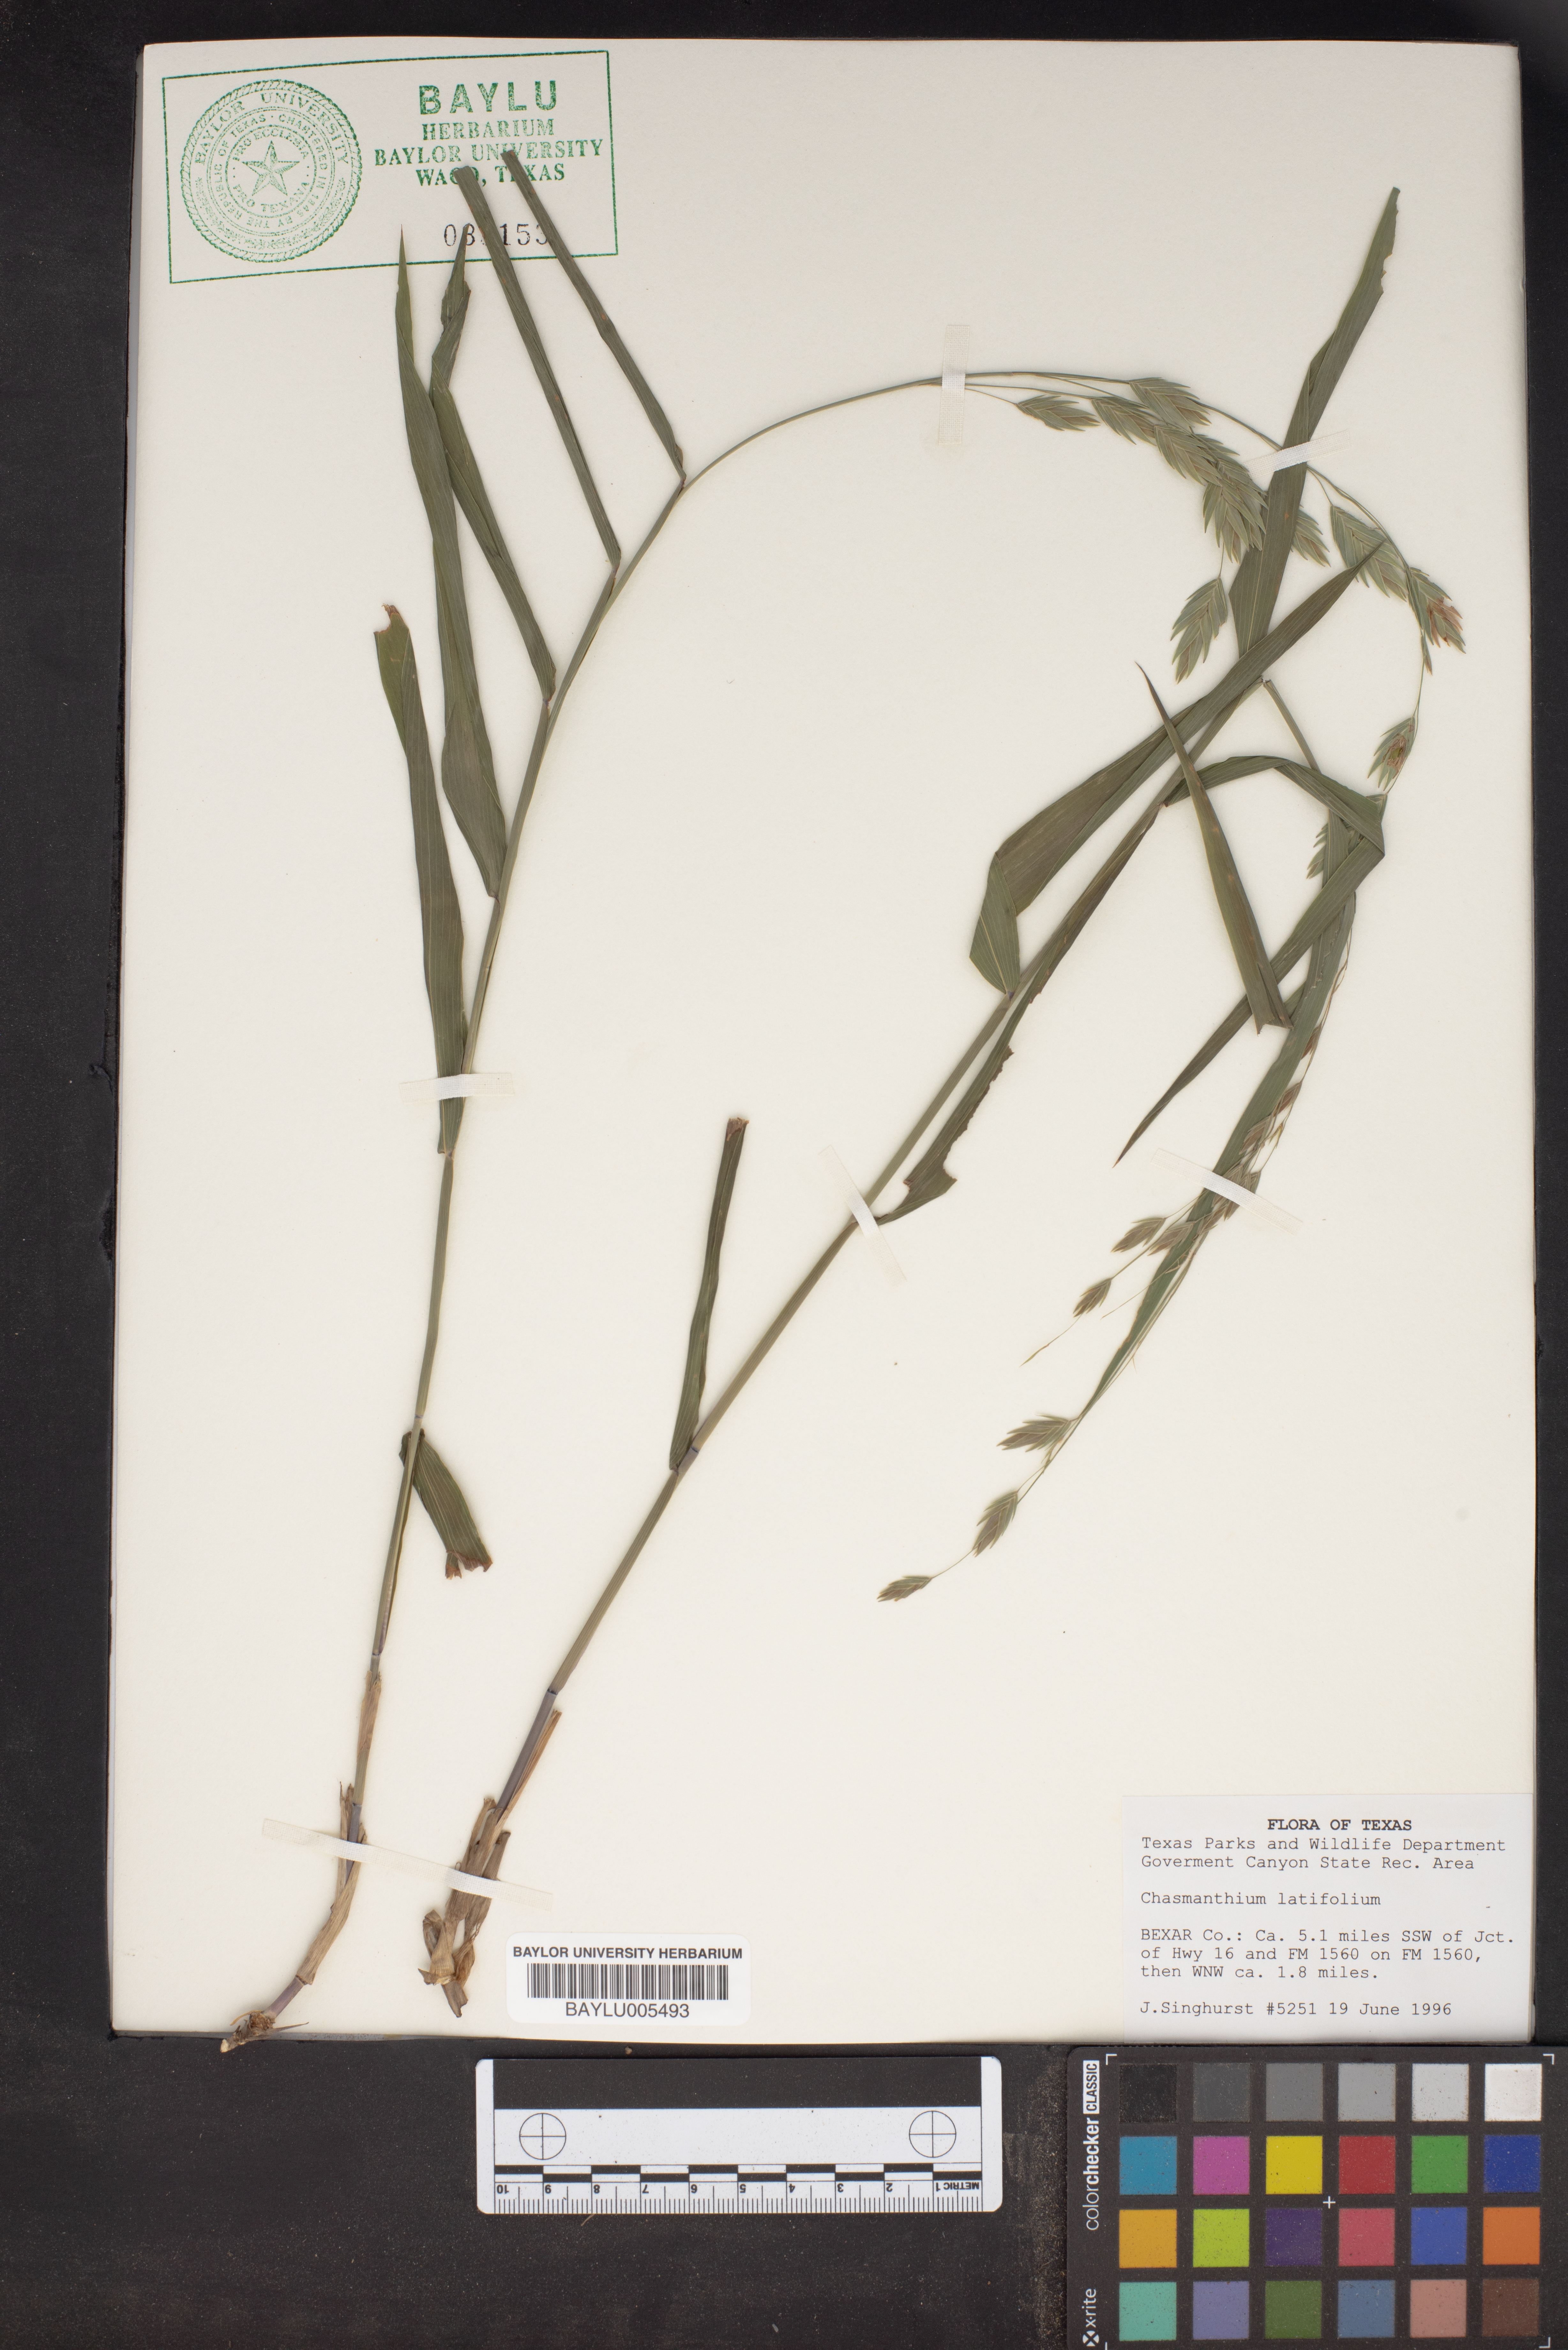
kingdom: Plantae
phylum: Tracheophyta
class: Liliopsida
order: Poales
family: Poaceae
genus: Chasmanthium
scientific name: Chasmanthium latifolium
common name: Broad-leaved chasmanthium
